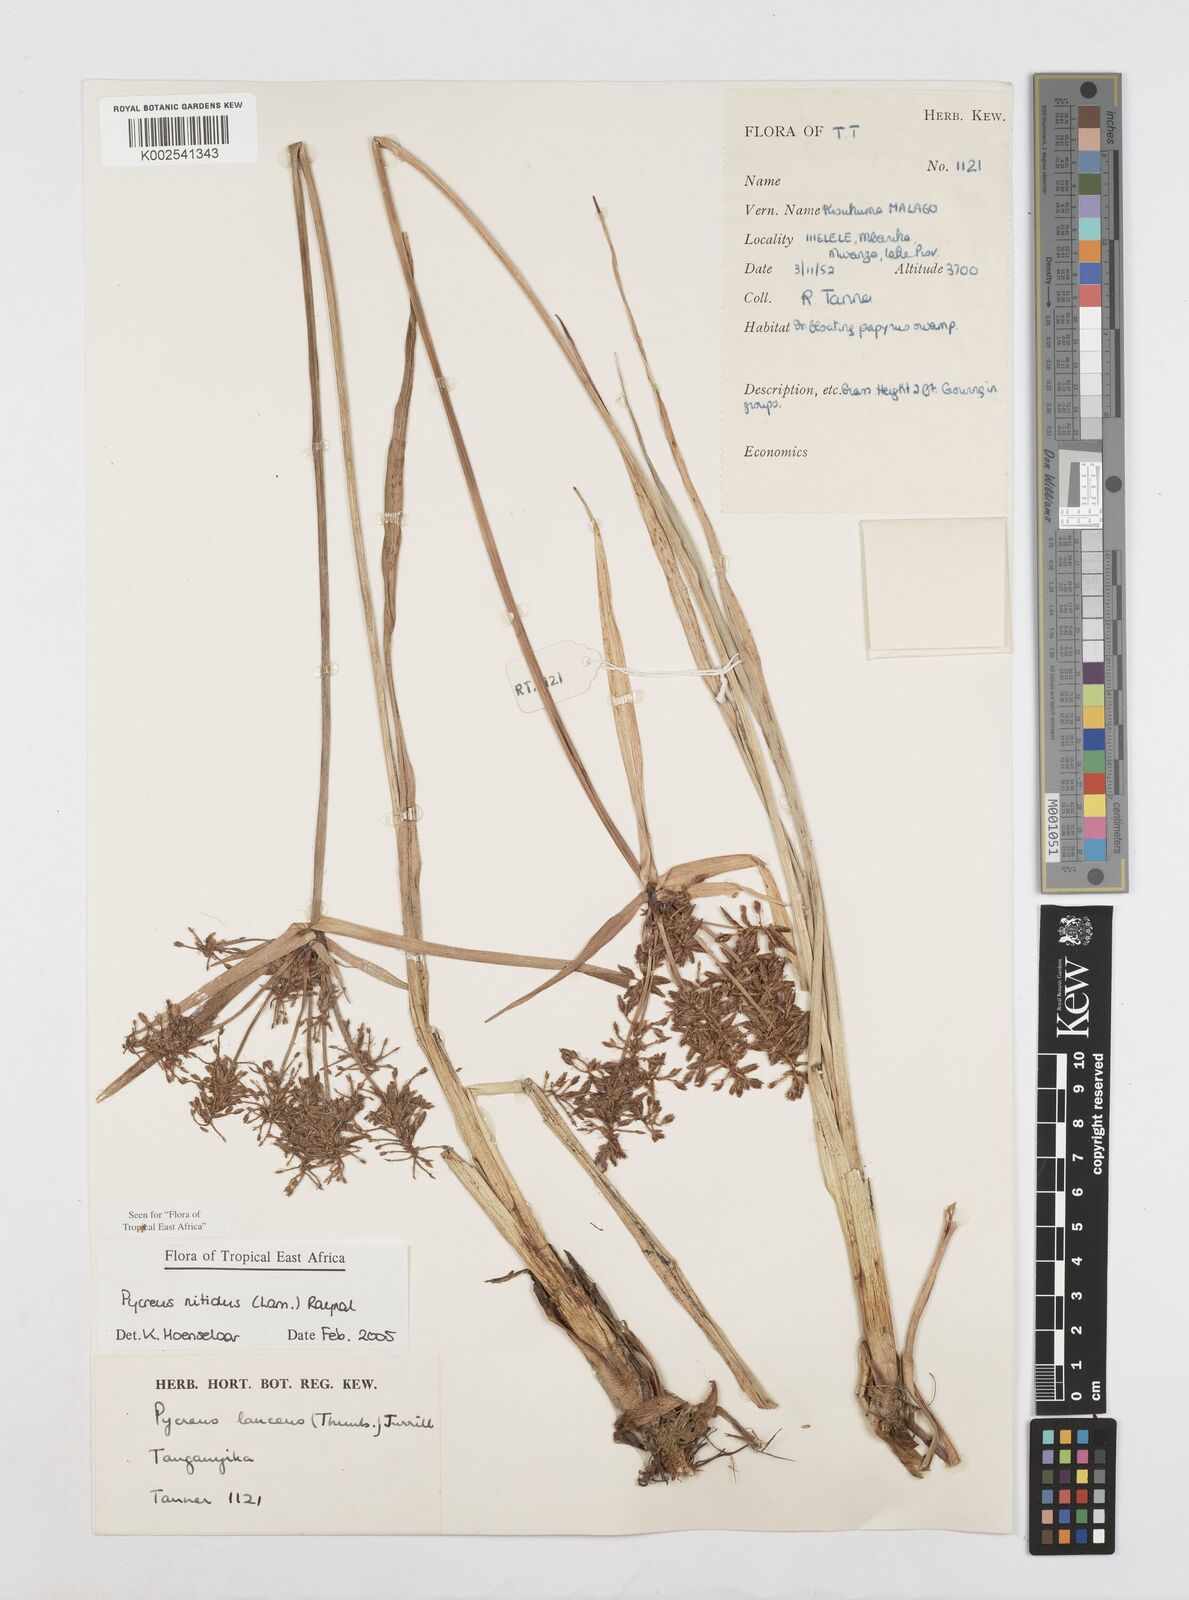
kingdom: Plantae
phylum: Tracheophyta
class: Liliopsida
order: Poales
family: Cyperaceae
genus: Cyperus
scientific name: Cyperus nitidus
